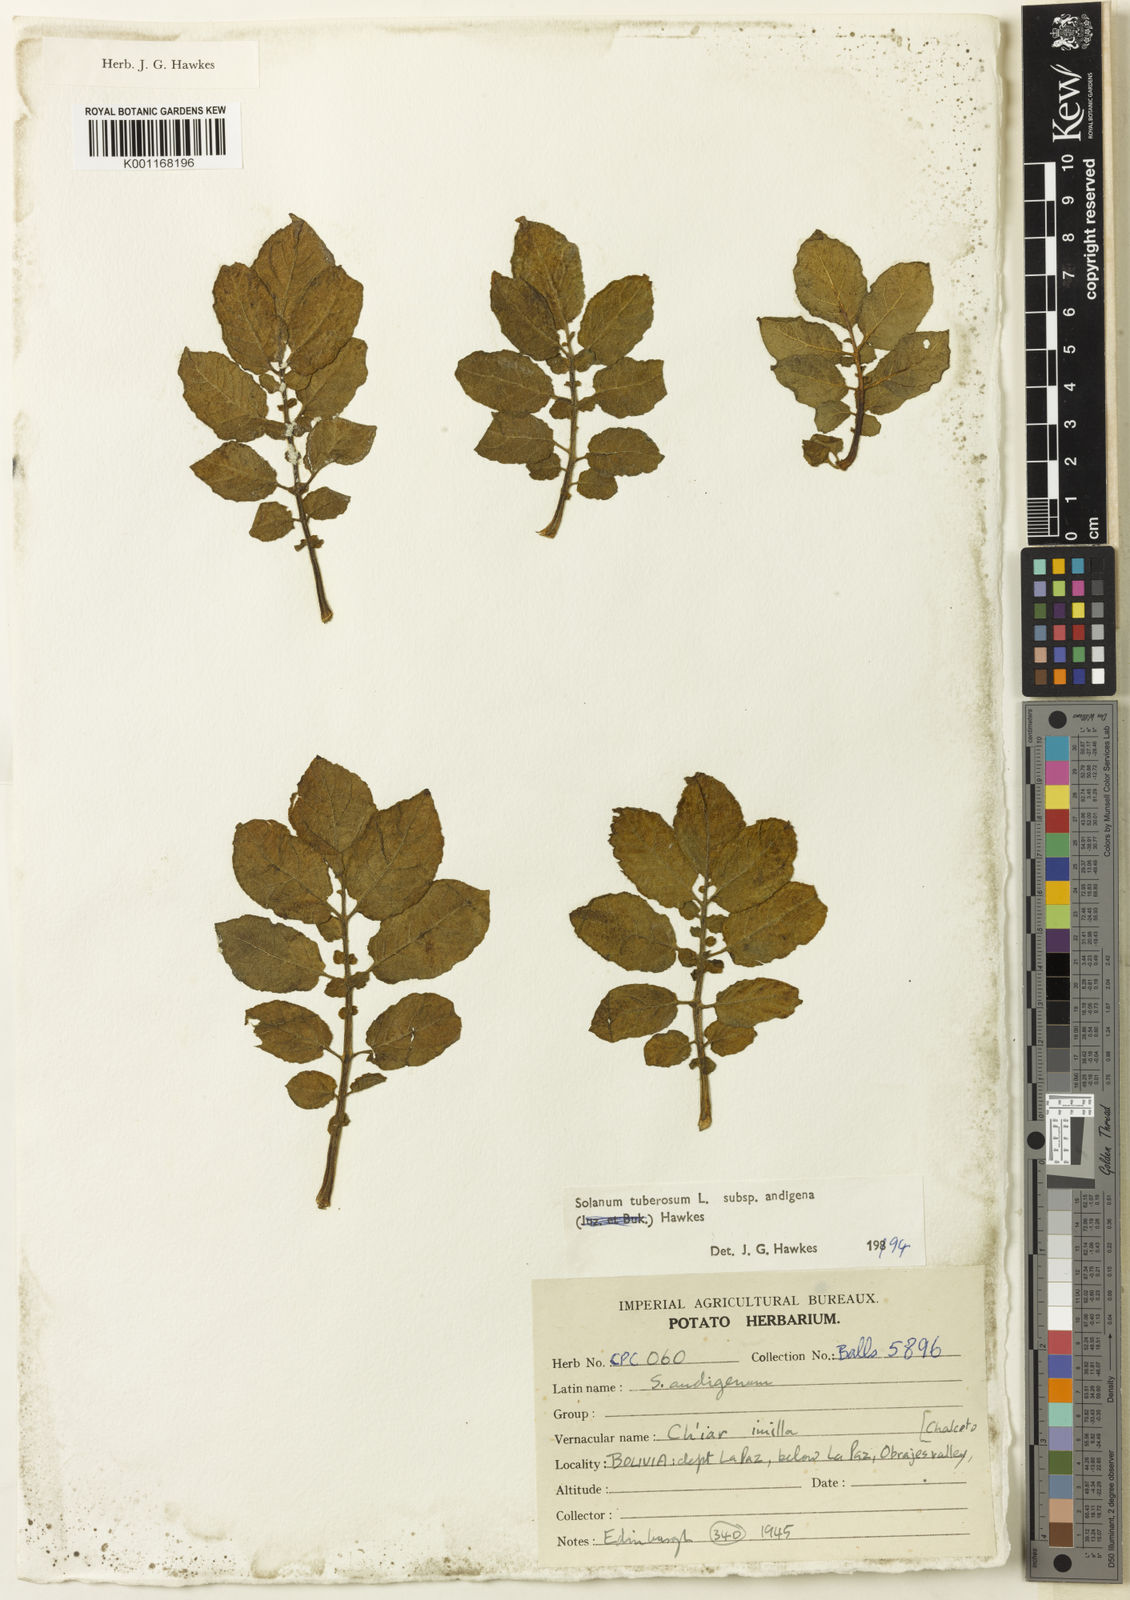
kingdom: Plantae
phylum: Tracheophyta
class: Magnoliopsida
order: Solanales
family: Solanaceae
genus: Solanum
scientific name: Solanum tuberosum
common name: Potato
